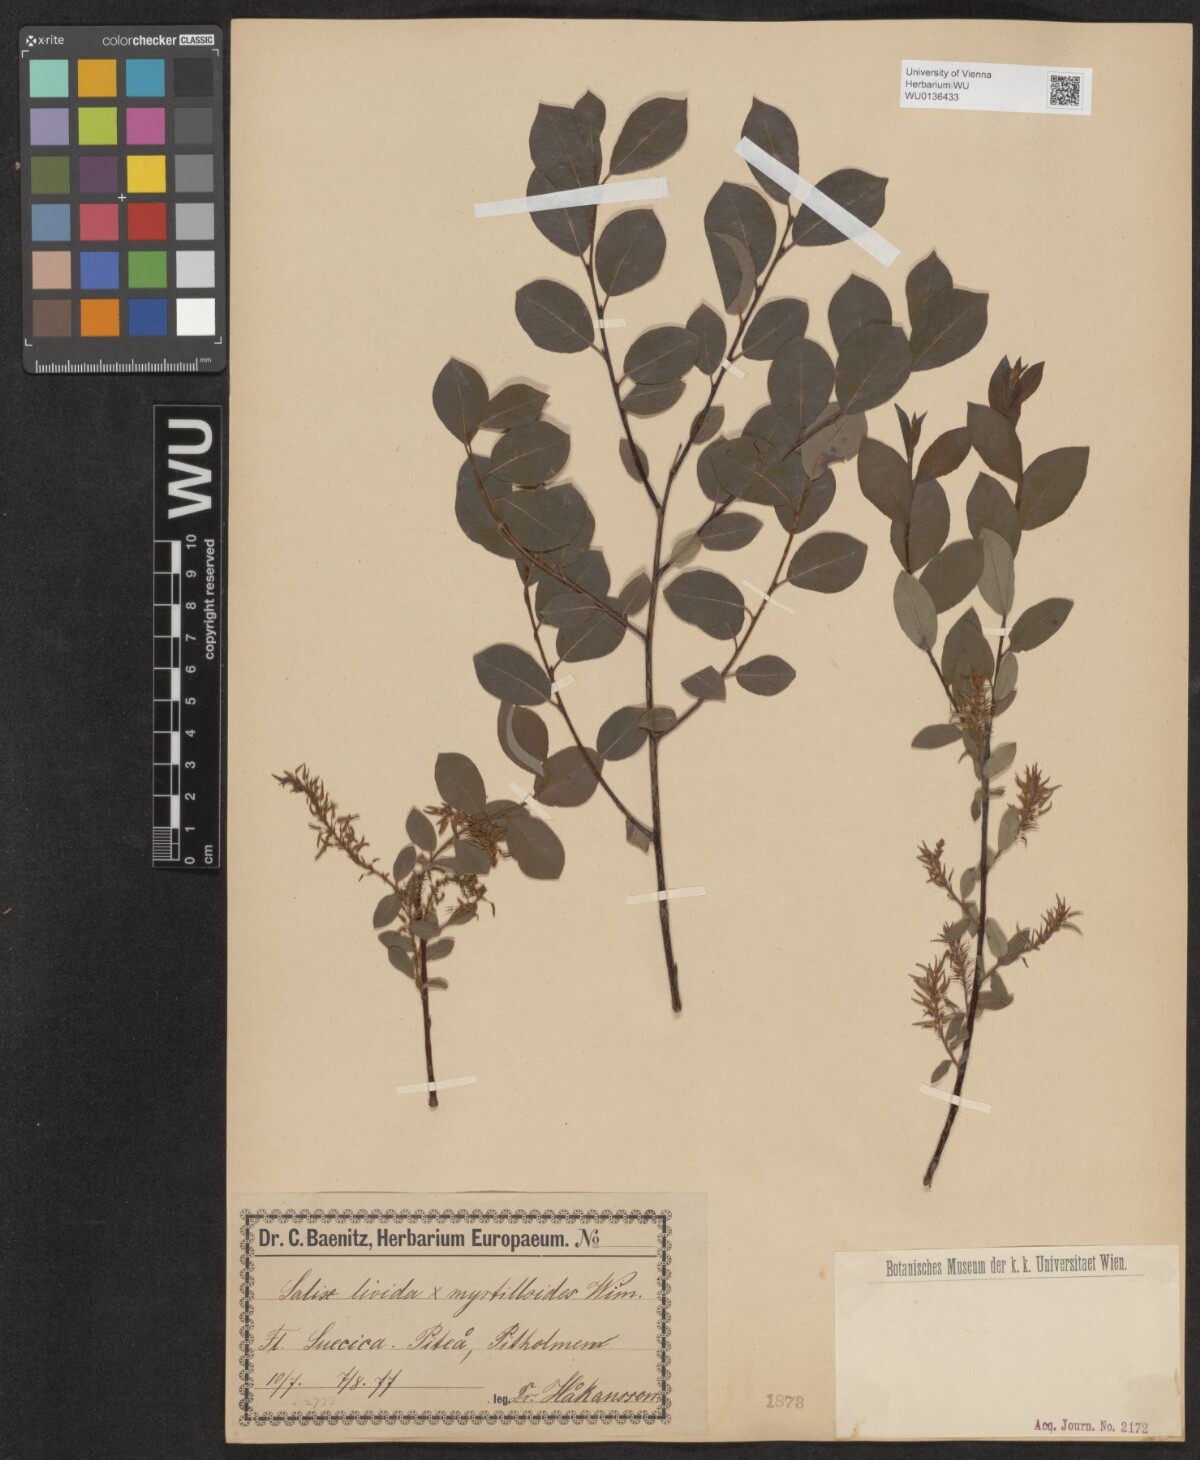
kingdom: Plantae
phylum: Tracheophyta
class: Magnoliopsida
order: Malpighiales
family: Salicaceae
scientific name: Salicaceae
